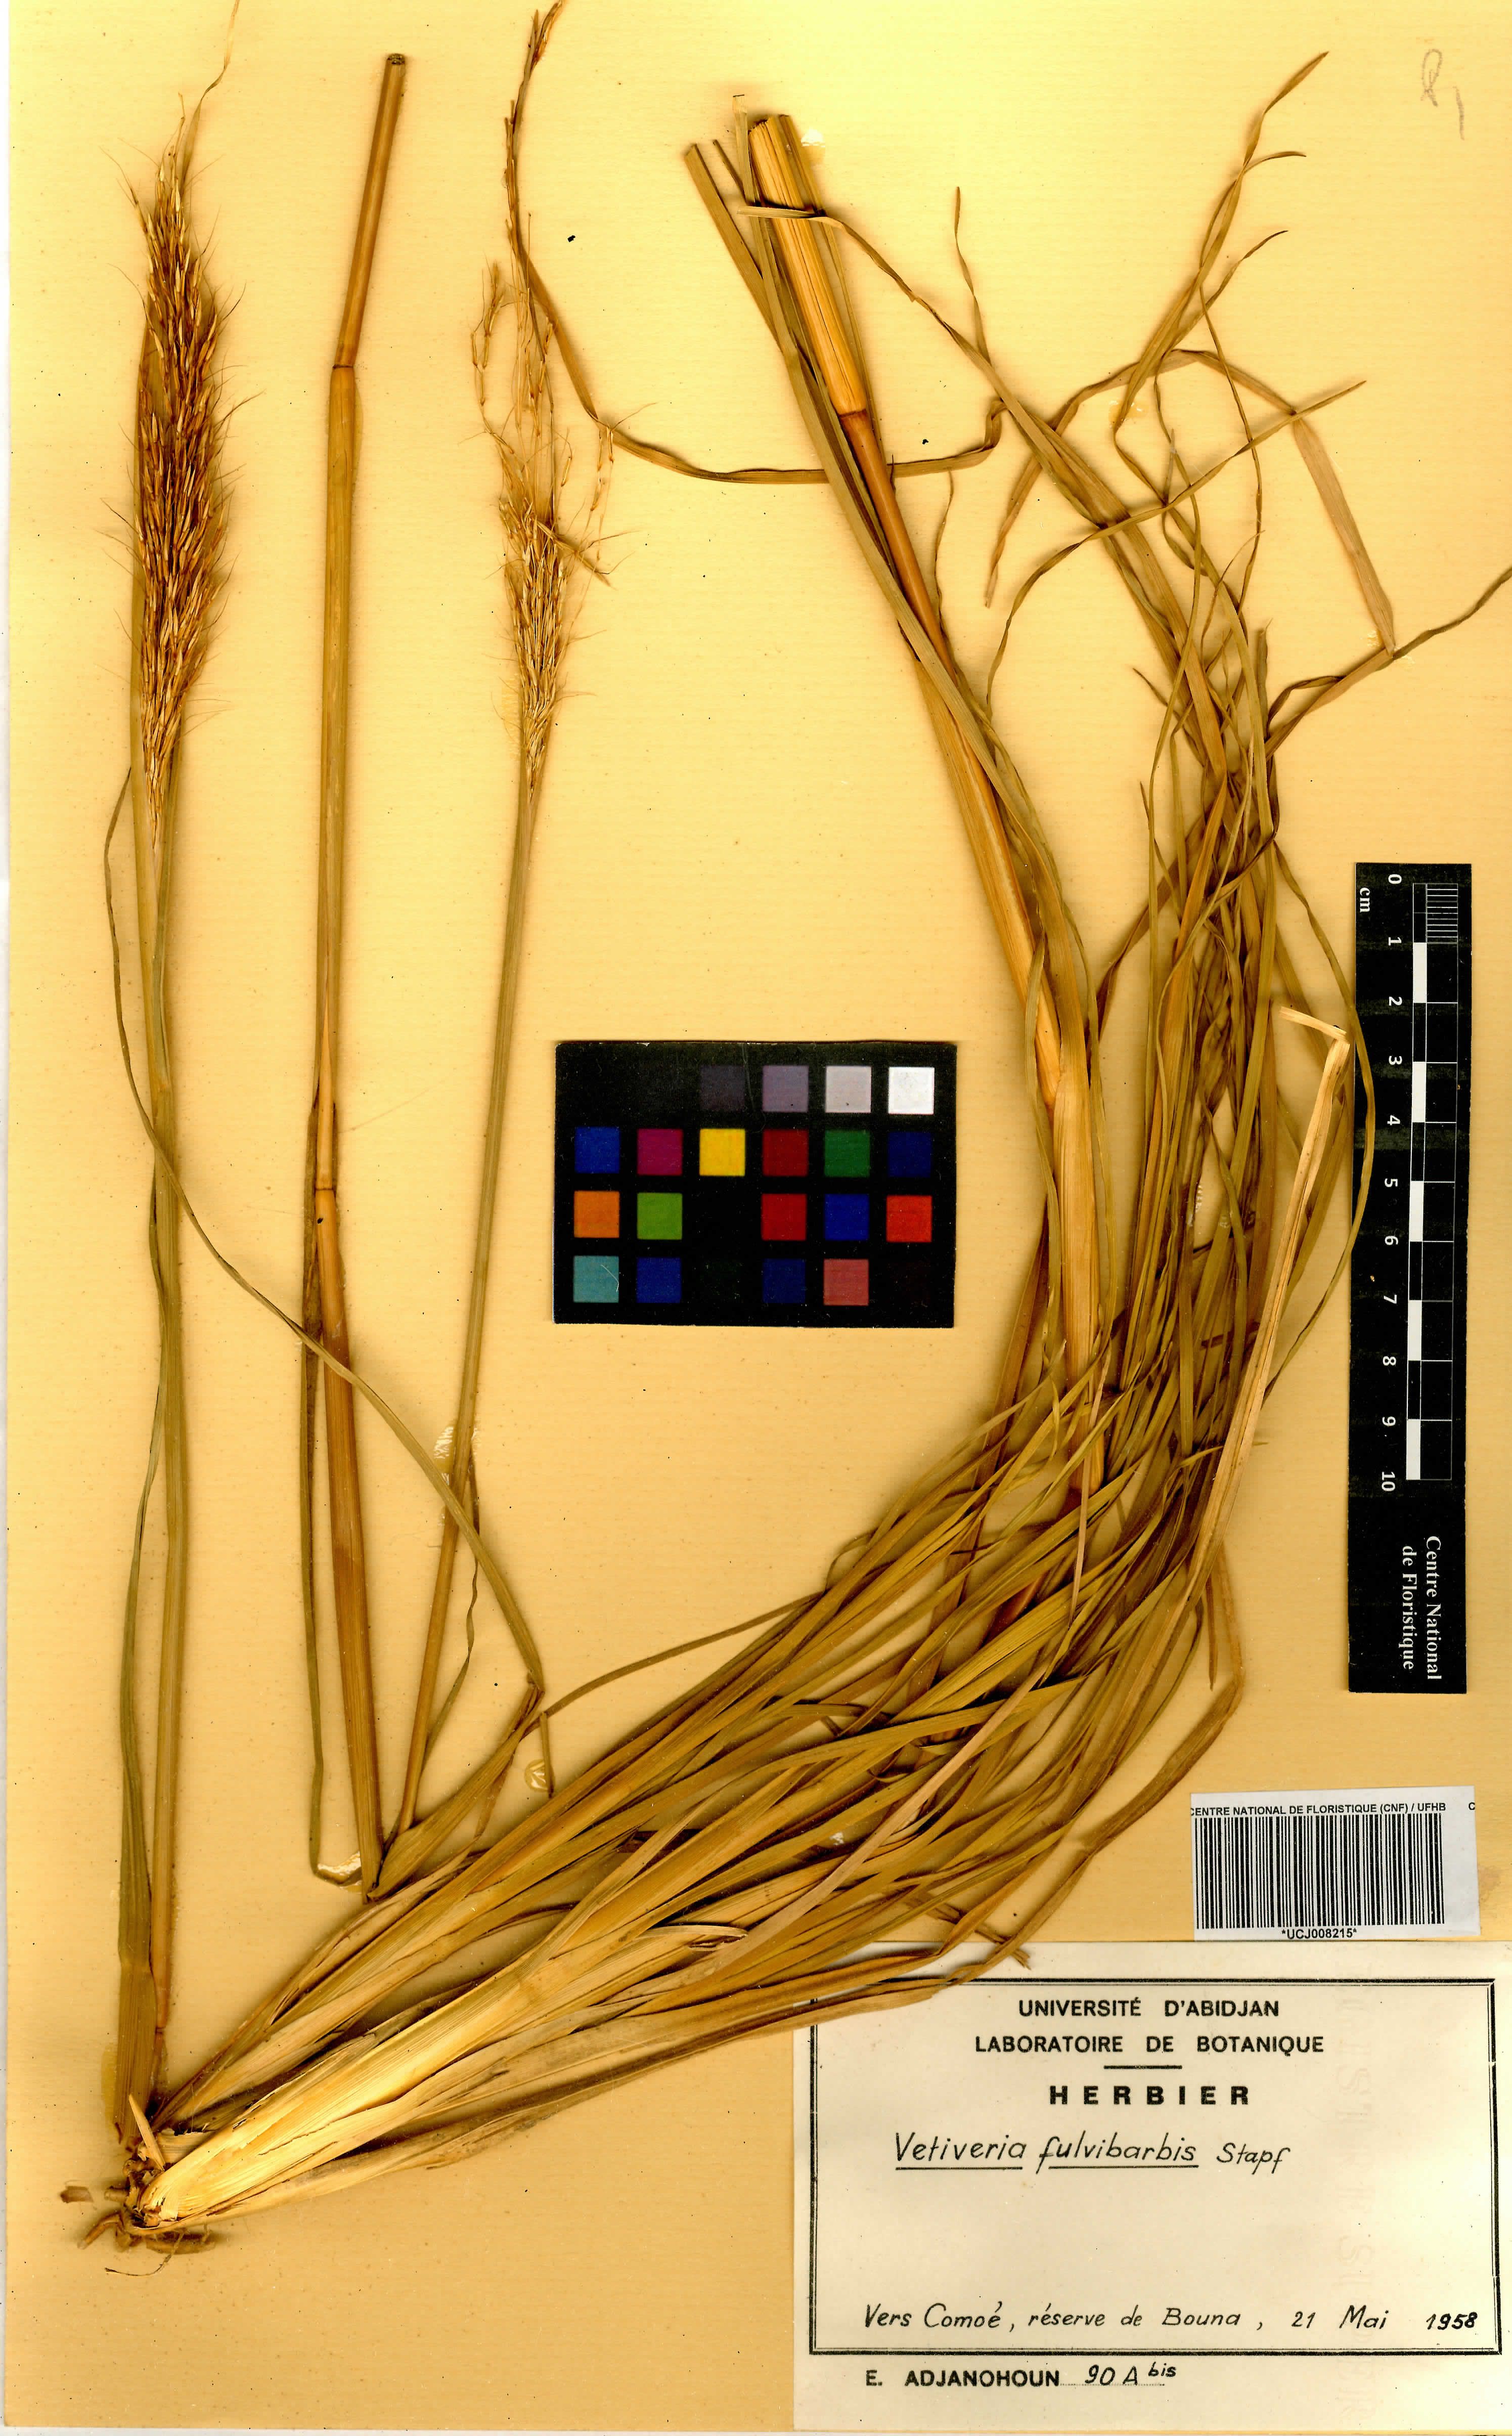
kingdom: Plantae
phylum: Tracheophyta
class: Liliopsida
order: Poales
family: Poaceae
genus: Chrysopogon
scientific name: Chrysopogon fulvibarbis
